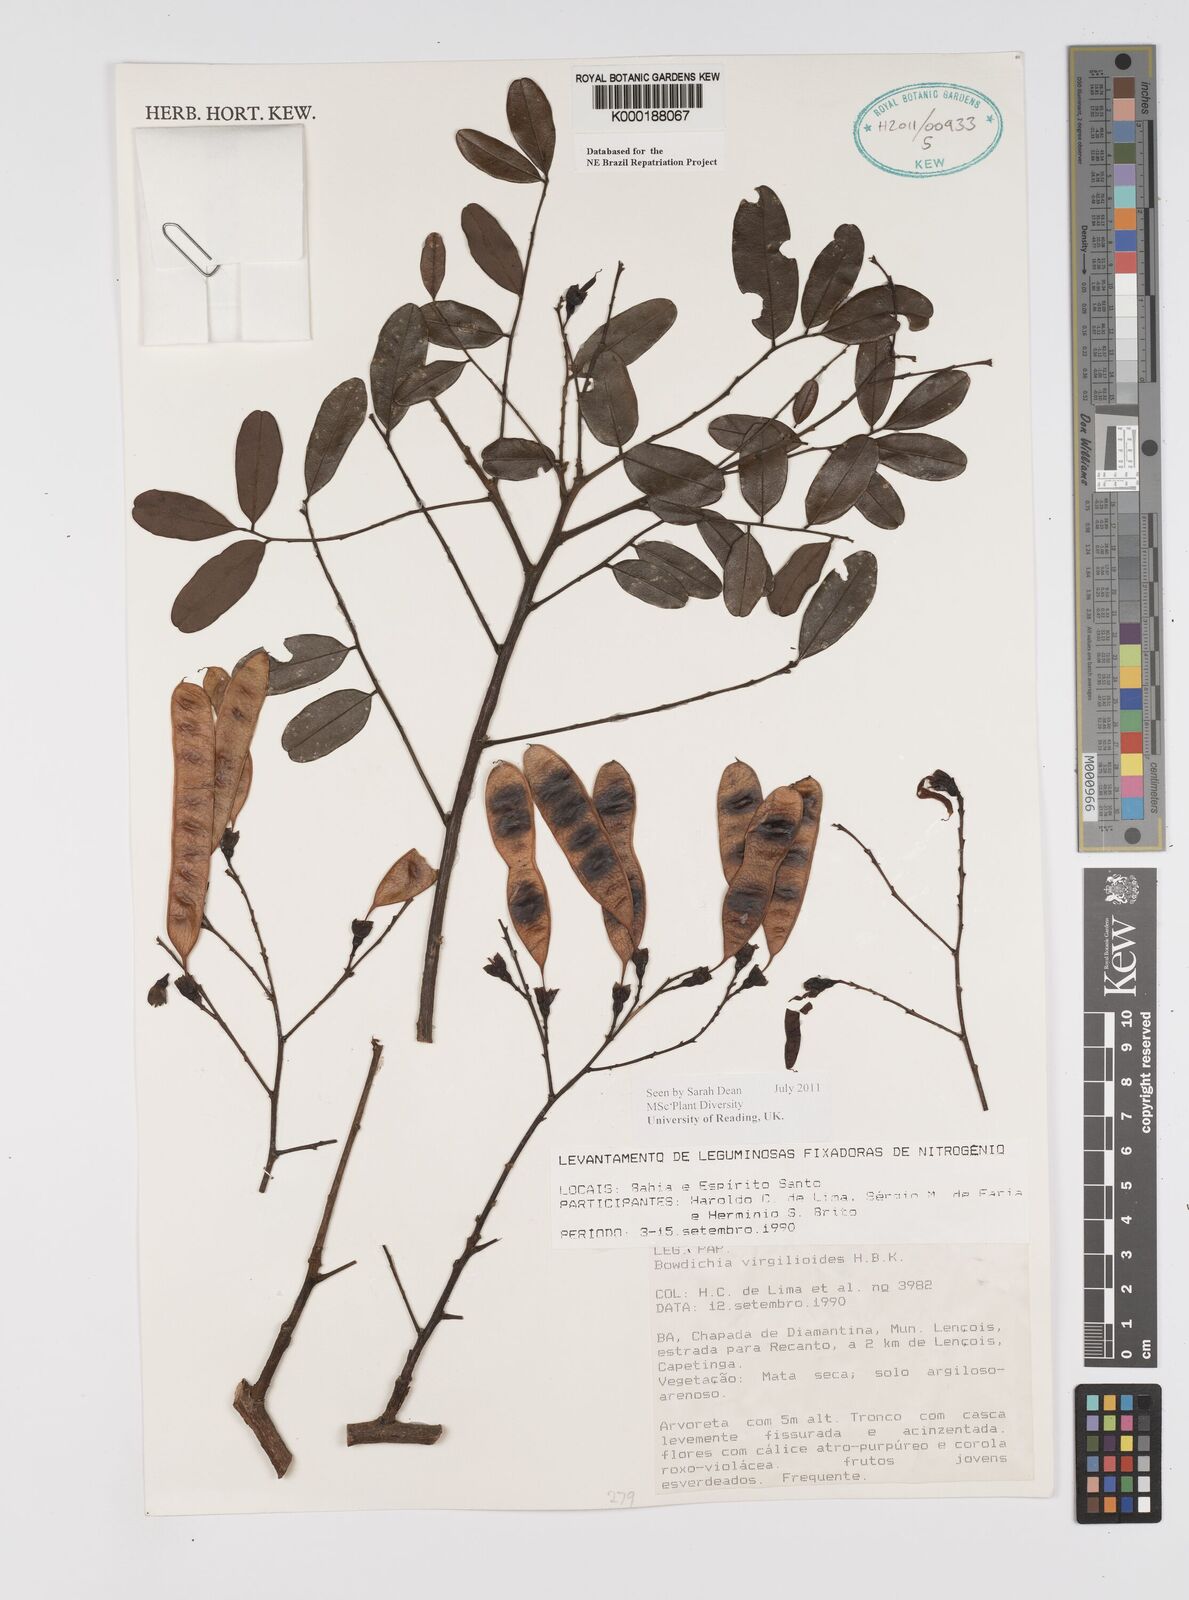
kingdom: Plantae
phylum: Tracheophyta
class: Magnoliopsida
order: Fabales
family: Fabaceae
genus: Bowdichia
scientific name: Bowdichia virgilioides
